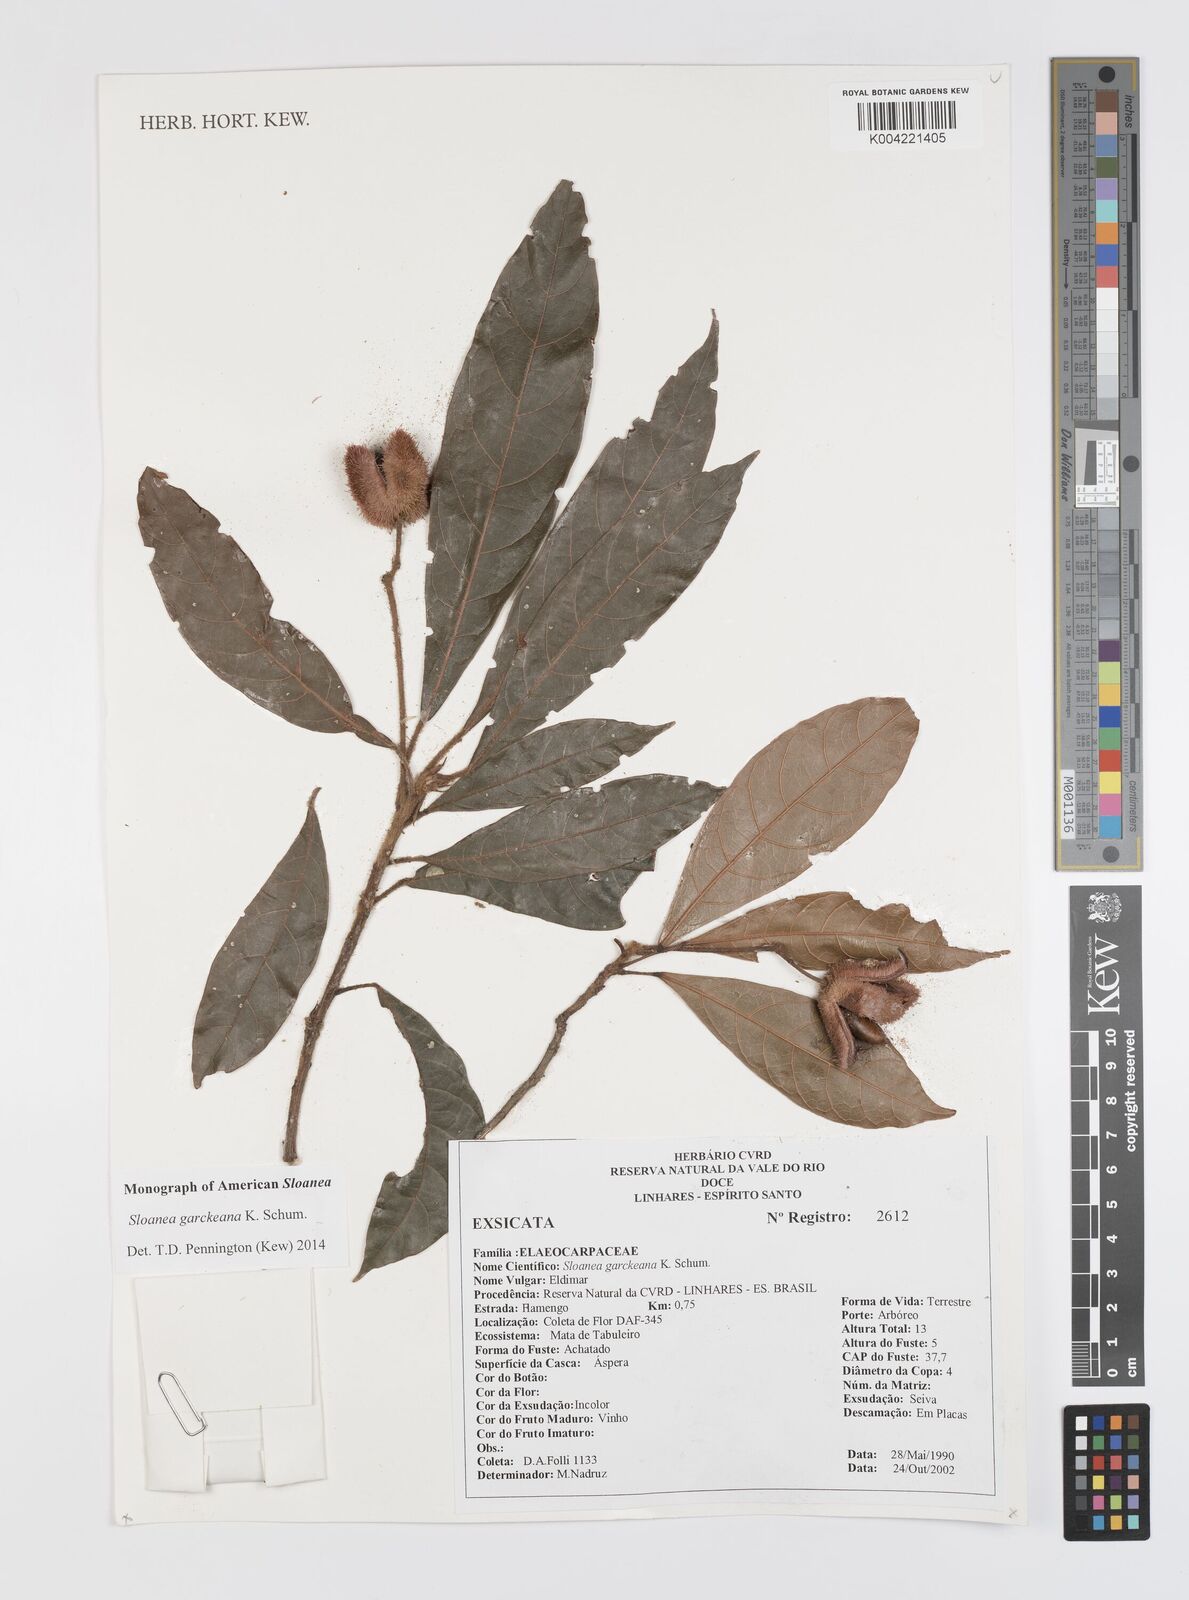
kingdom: Plantae
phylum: Tracheophyta
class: Magnoliopsida
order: Oxalidales
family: Elaeocarpaceae
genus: Sloanea
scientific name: Sloanea garckeana
